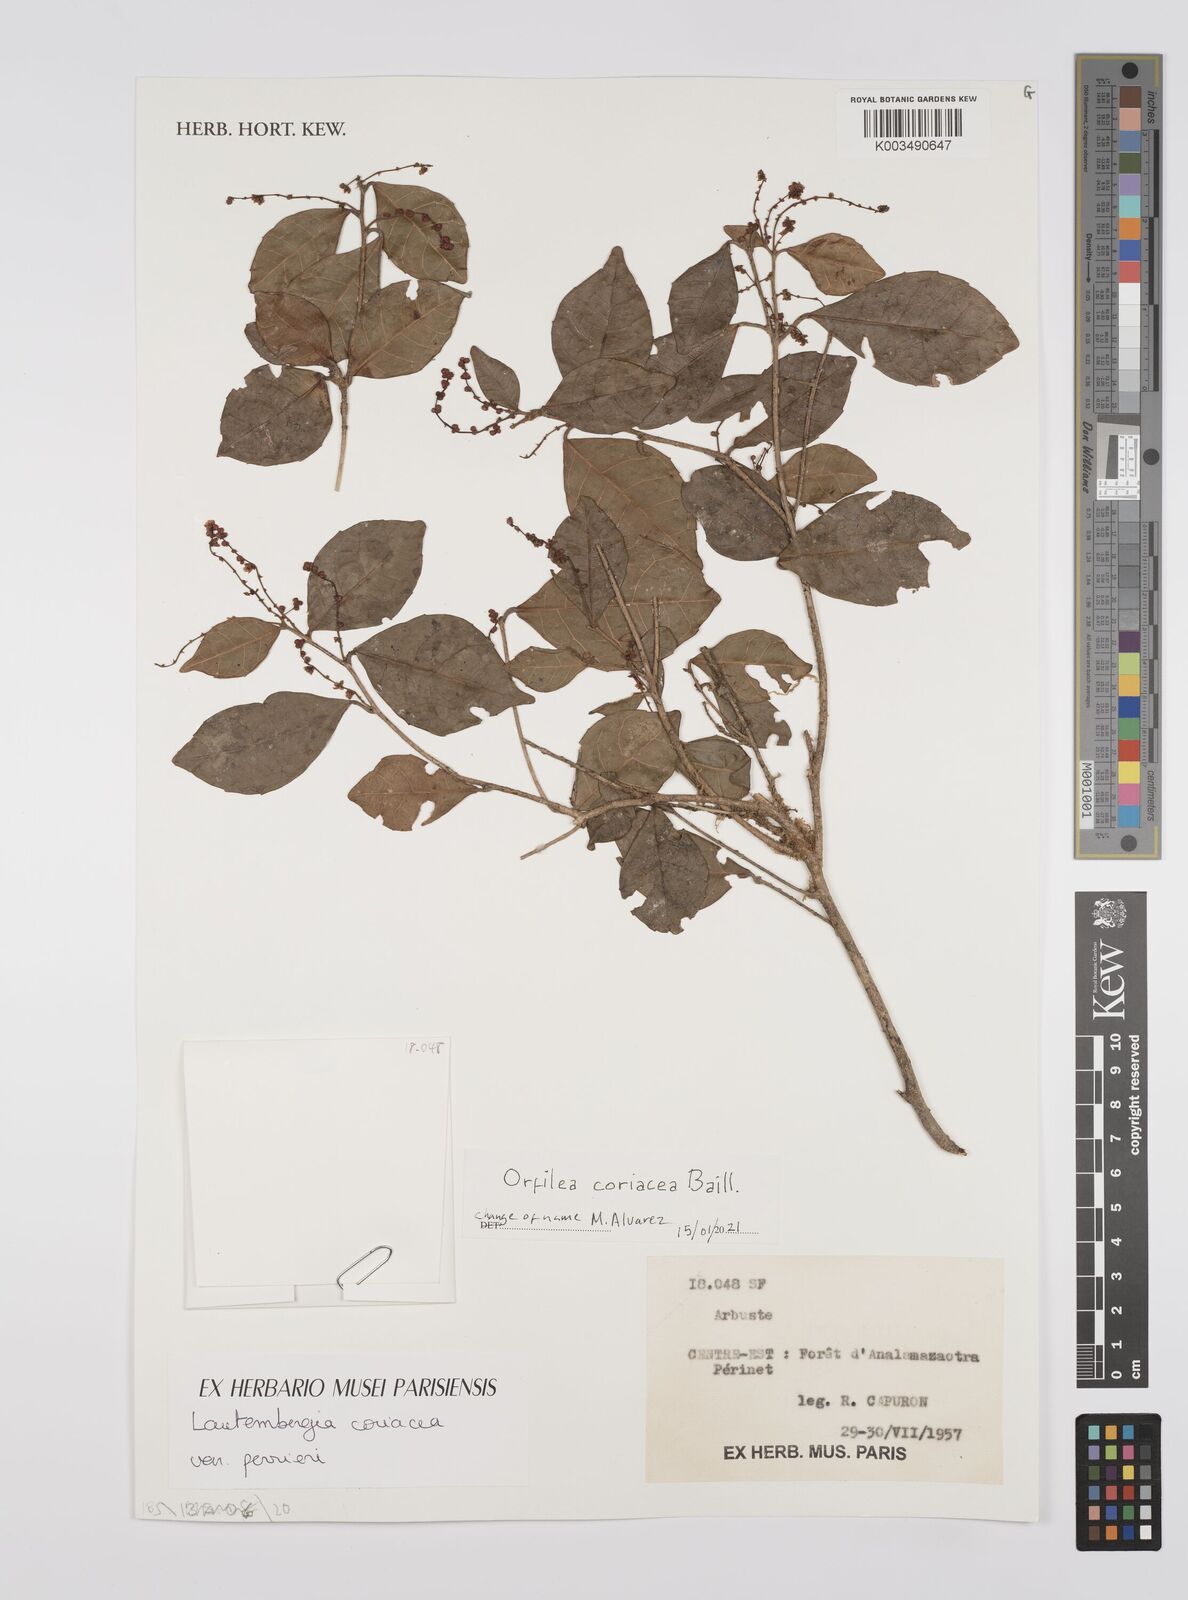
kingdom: Plantae
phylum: Tracheophyta
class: Magnoliopsida
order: Malpighiales
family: Euphorbiaceae
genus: Orfilea
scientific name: Orfilea coriacea
